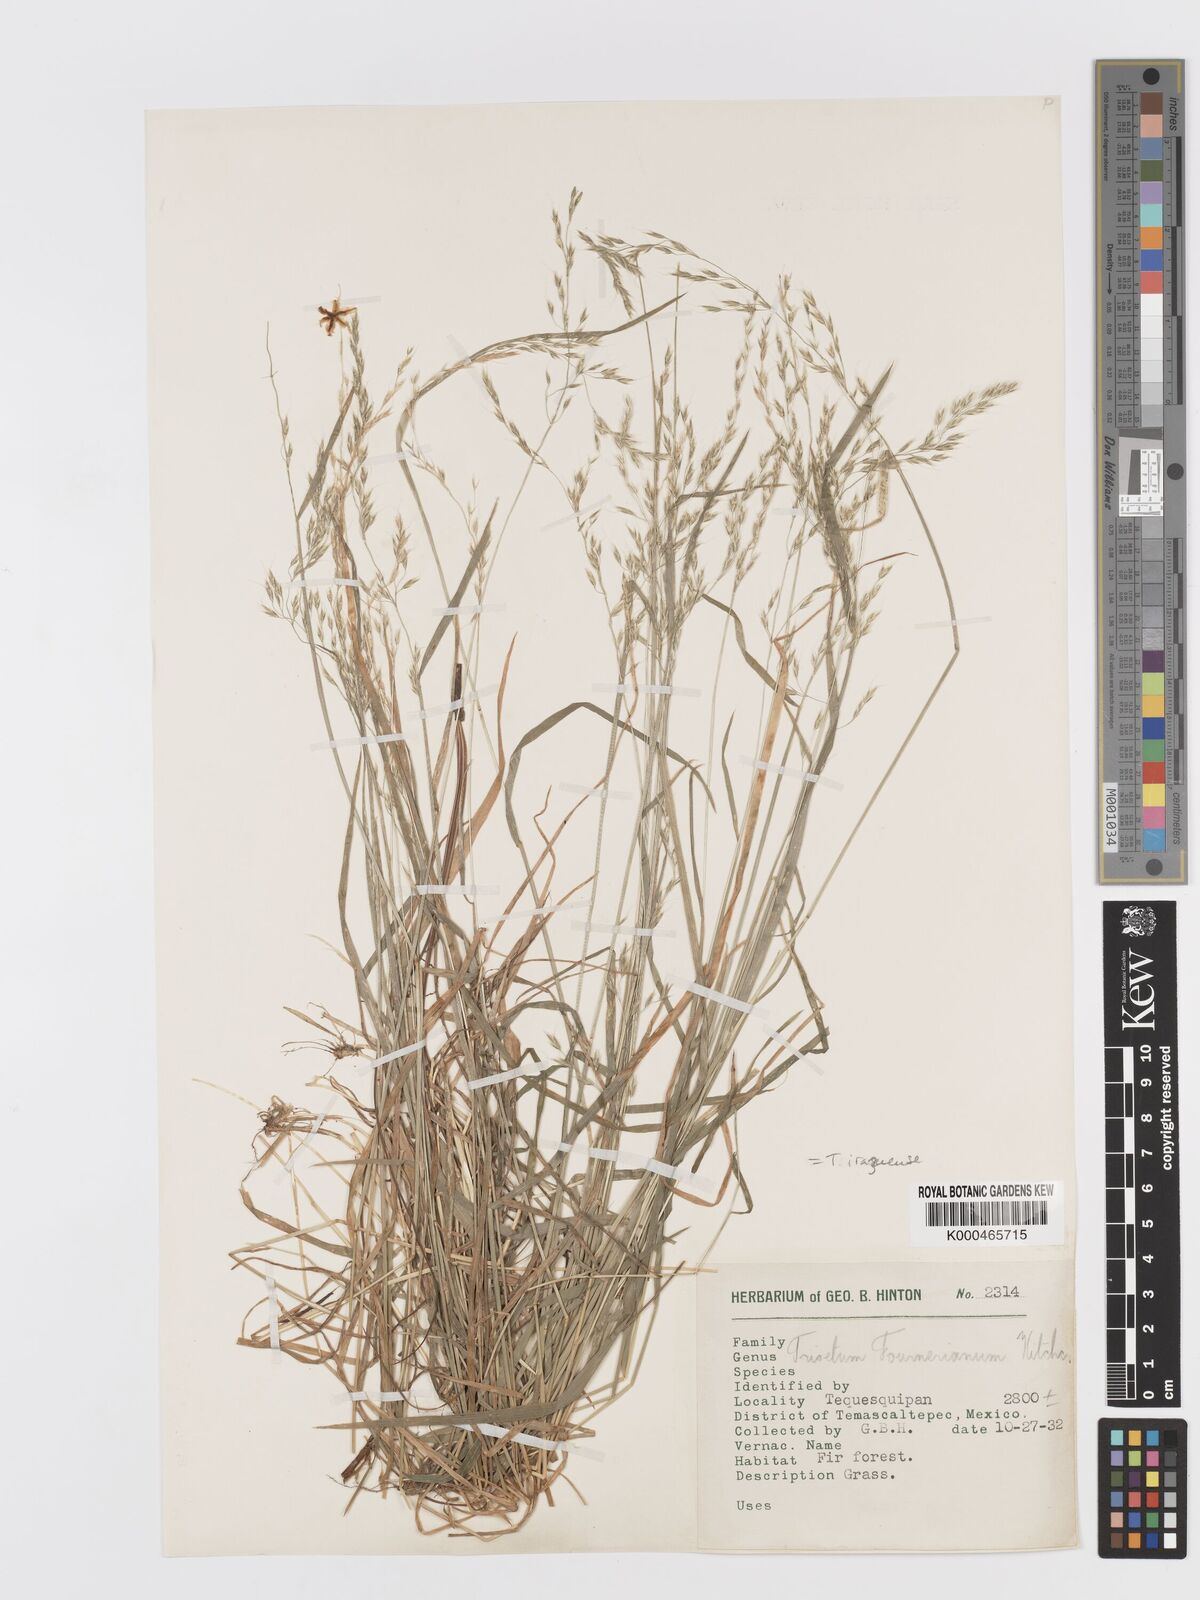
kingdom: Plantae
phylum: Tracheophyta
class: Liliopsida
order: Poales
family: Poaceae
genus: Peyritschia
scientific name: Peyritschia irazuensis
